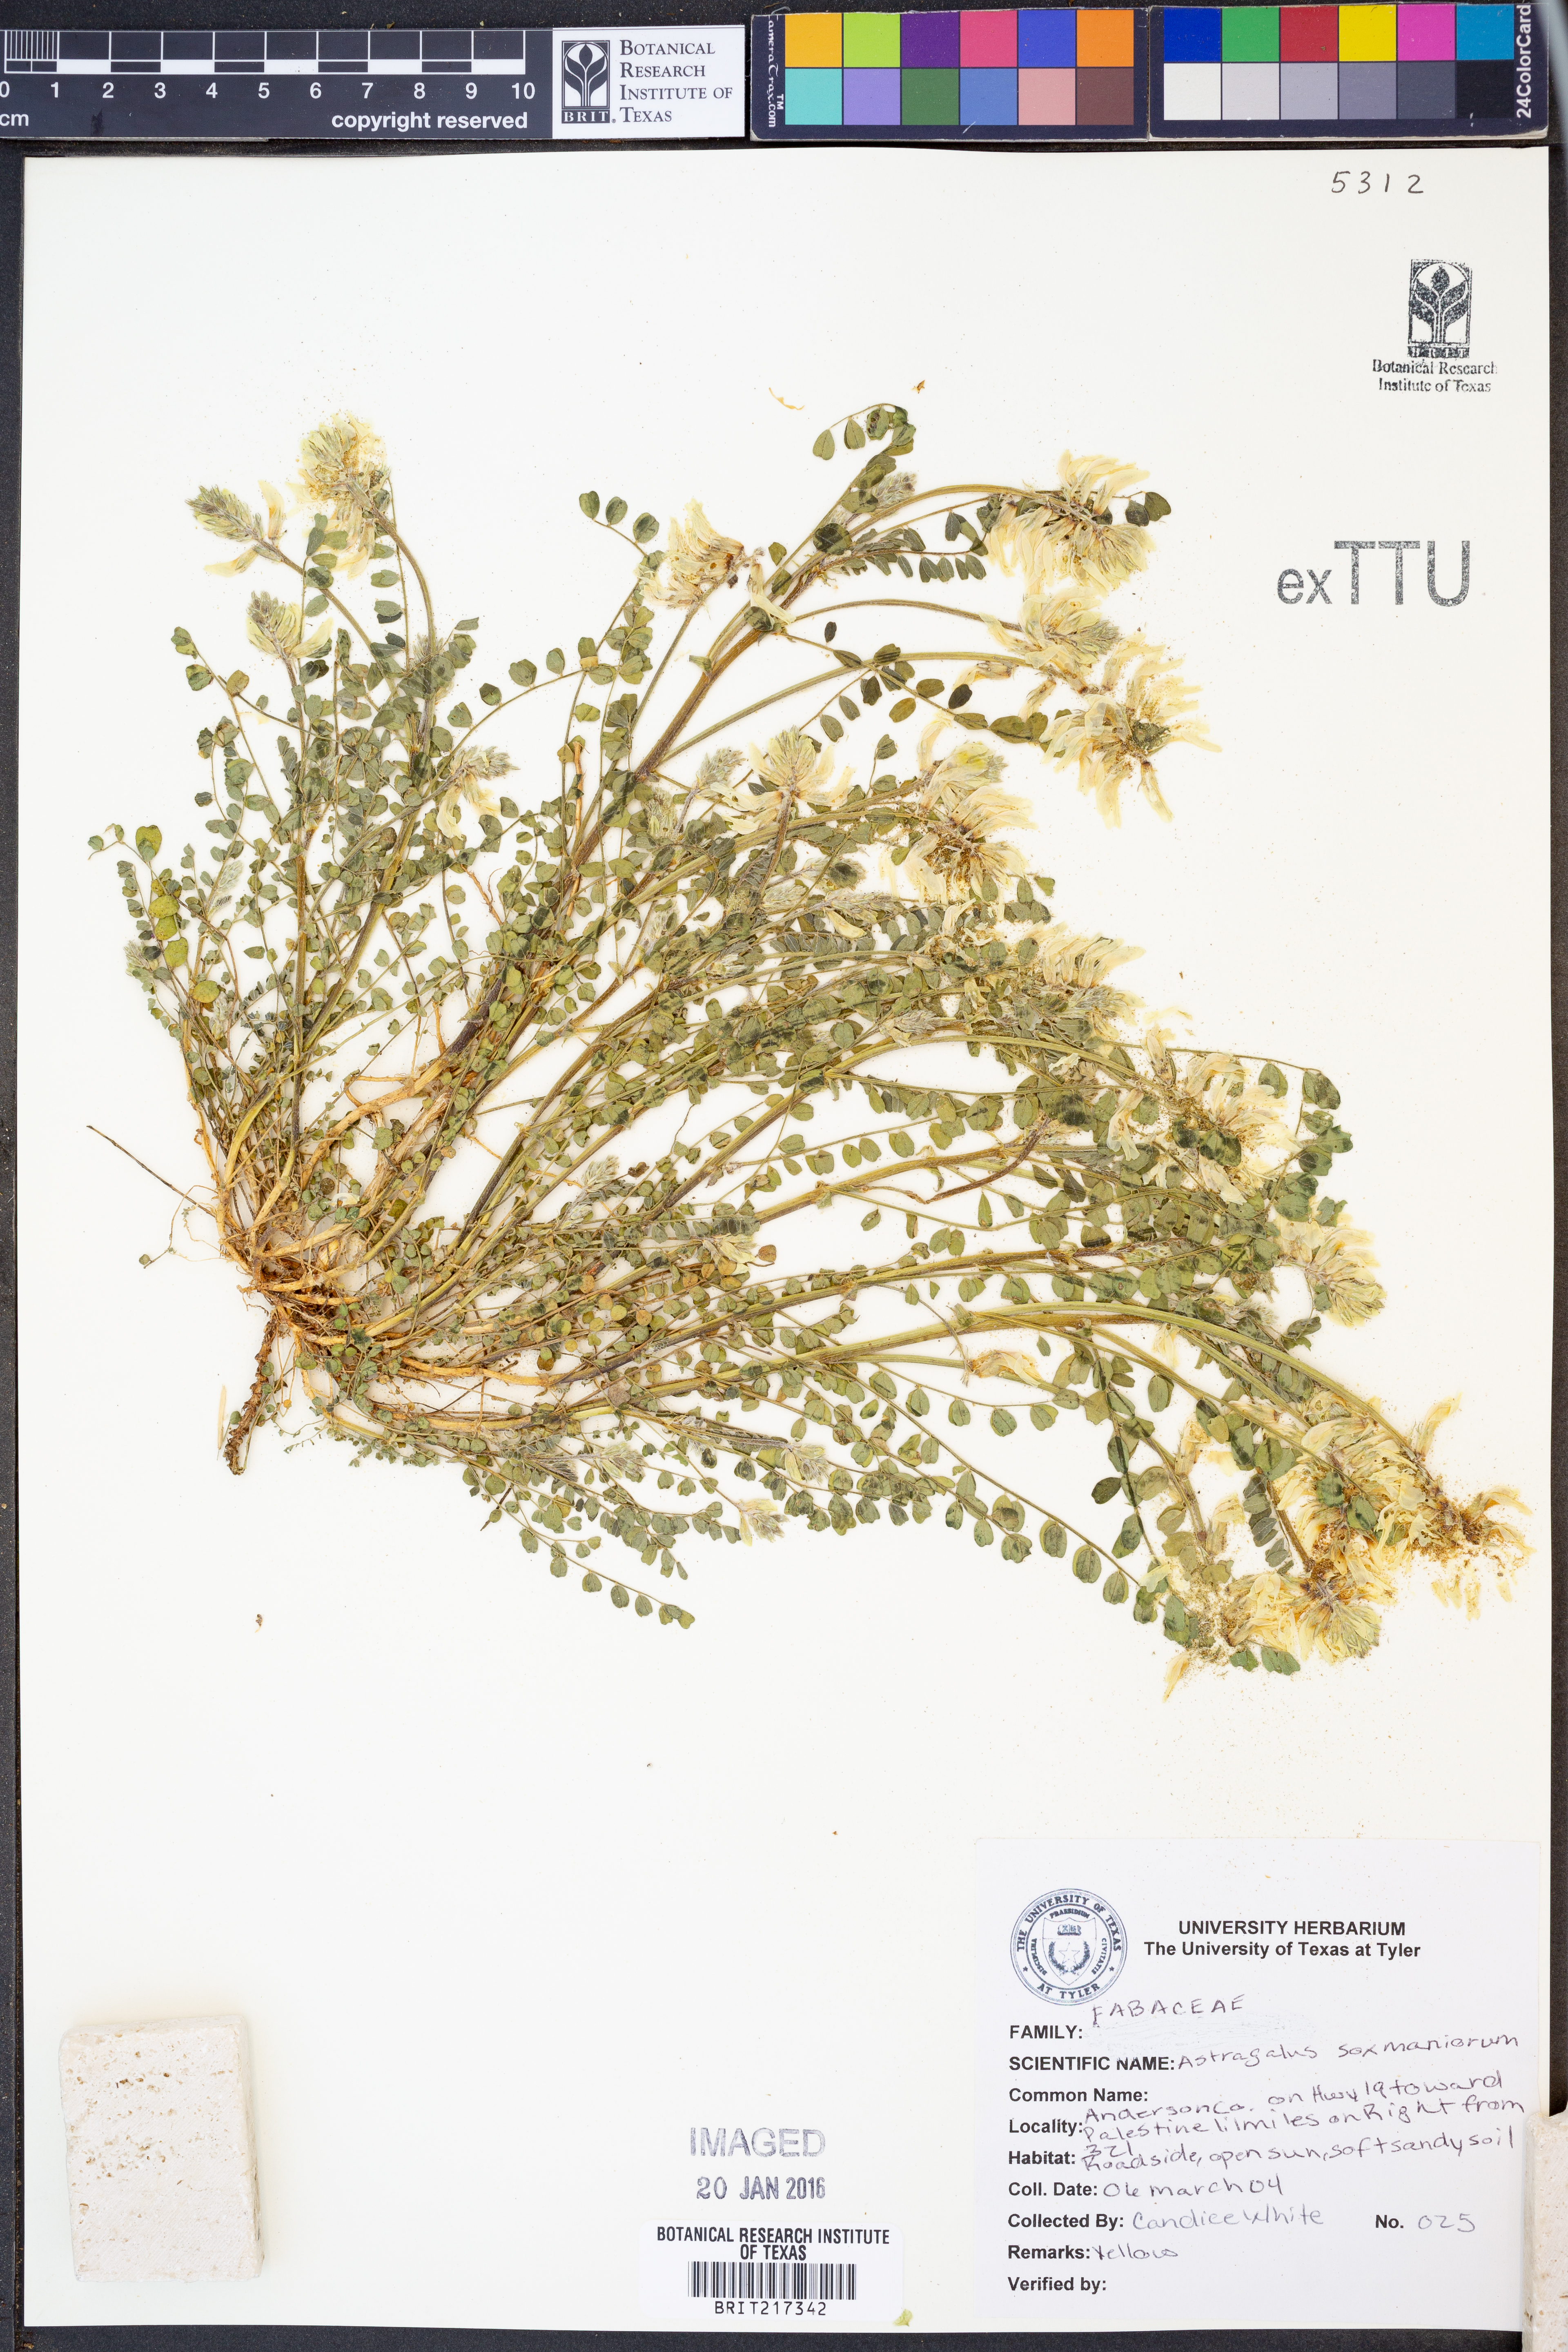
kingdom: Plantae
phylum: Tracheophyta
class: Magnoliopsida
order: Fabales
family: Fabaceae
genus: Astragalus
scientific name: Astragalus soxmaniorum
